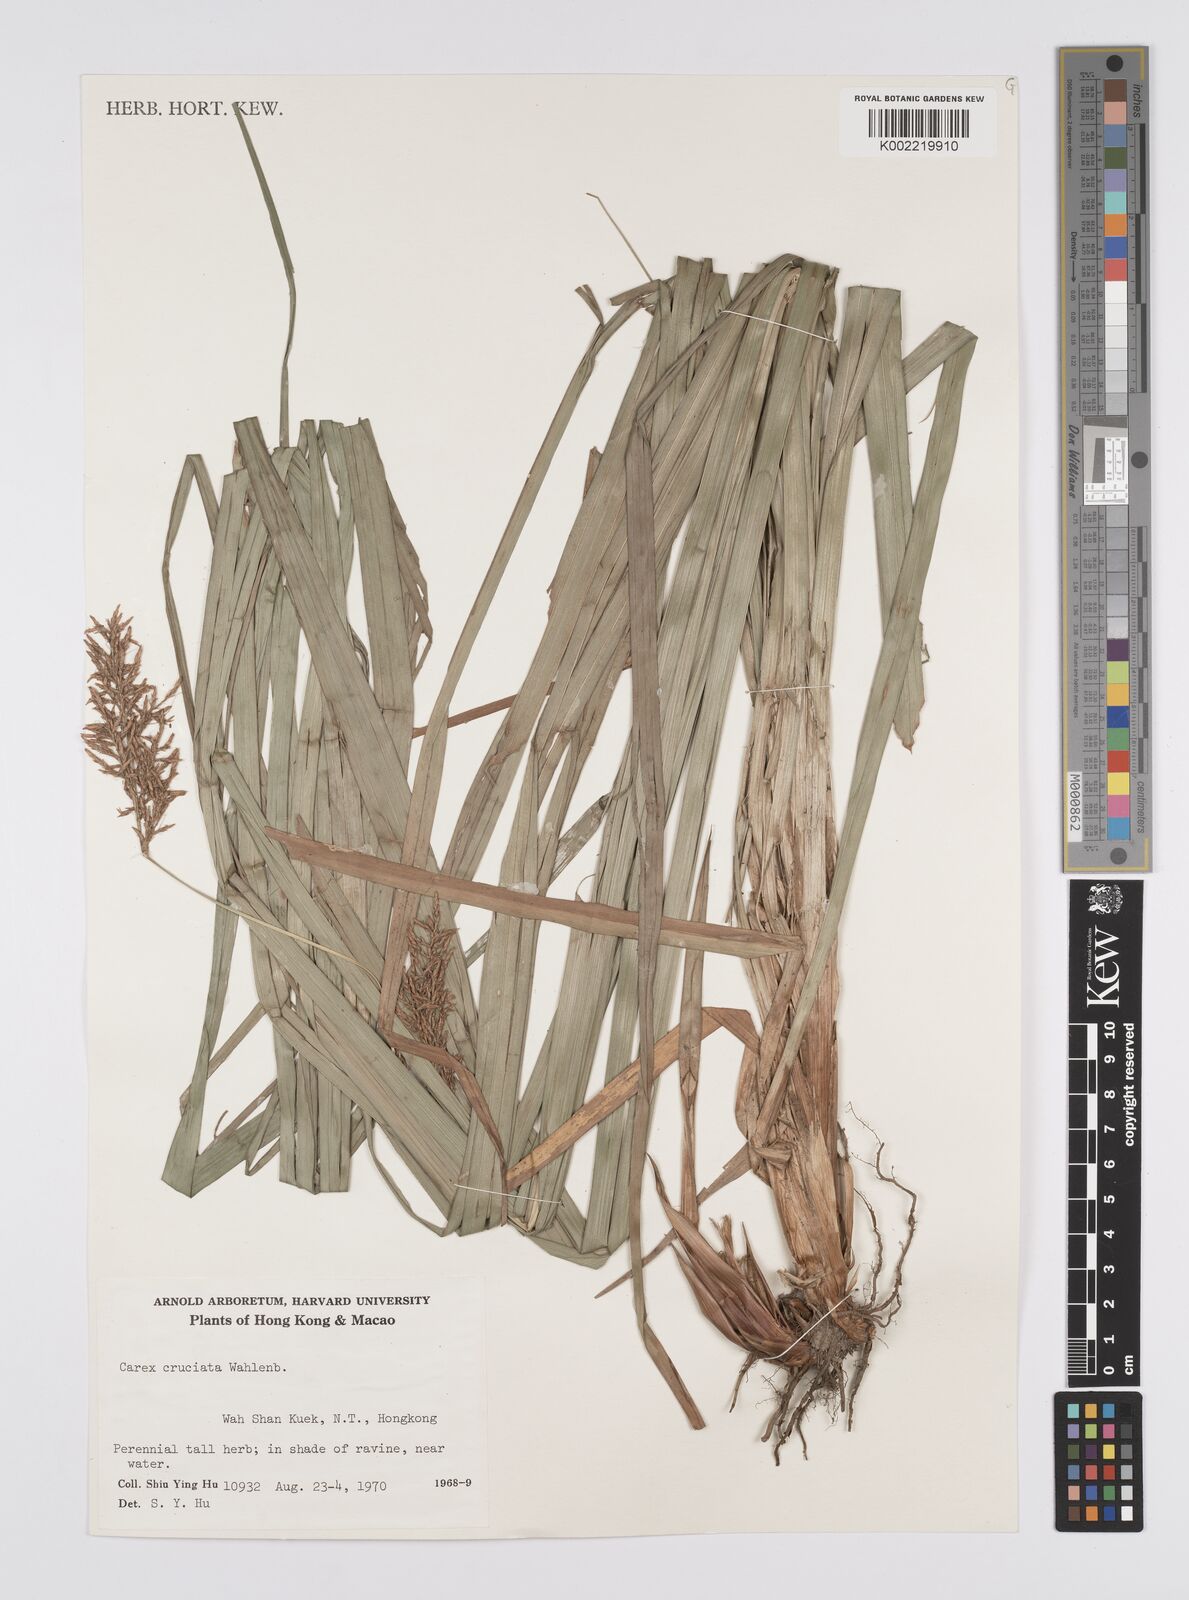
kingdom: Plantae
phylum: Tracheophyta
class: Liliopsida
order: Poales
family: Cyperaceae
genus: Carex
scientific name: Carex cruciata
